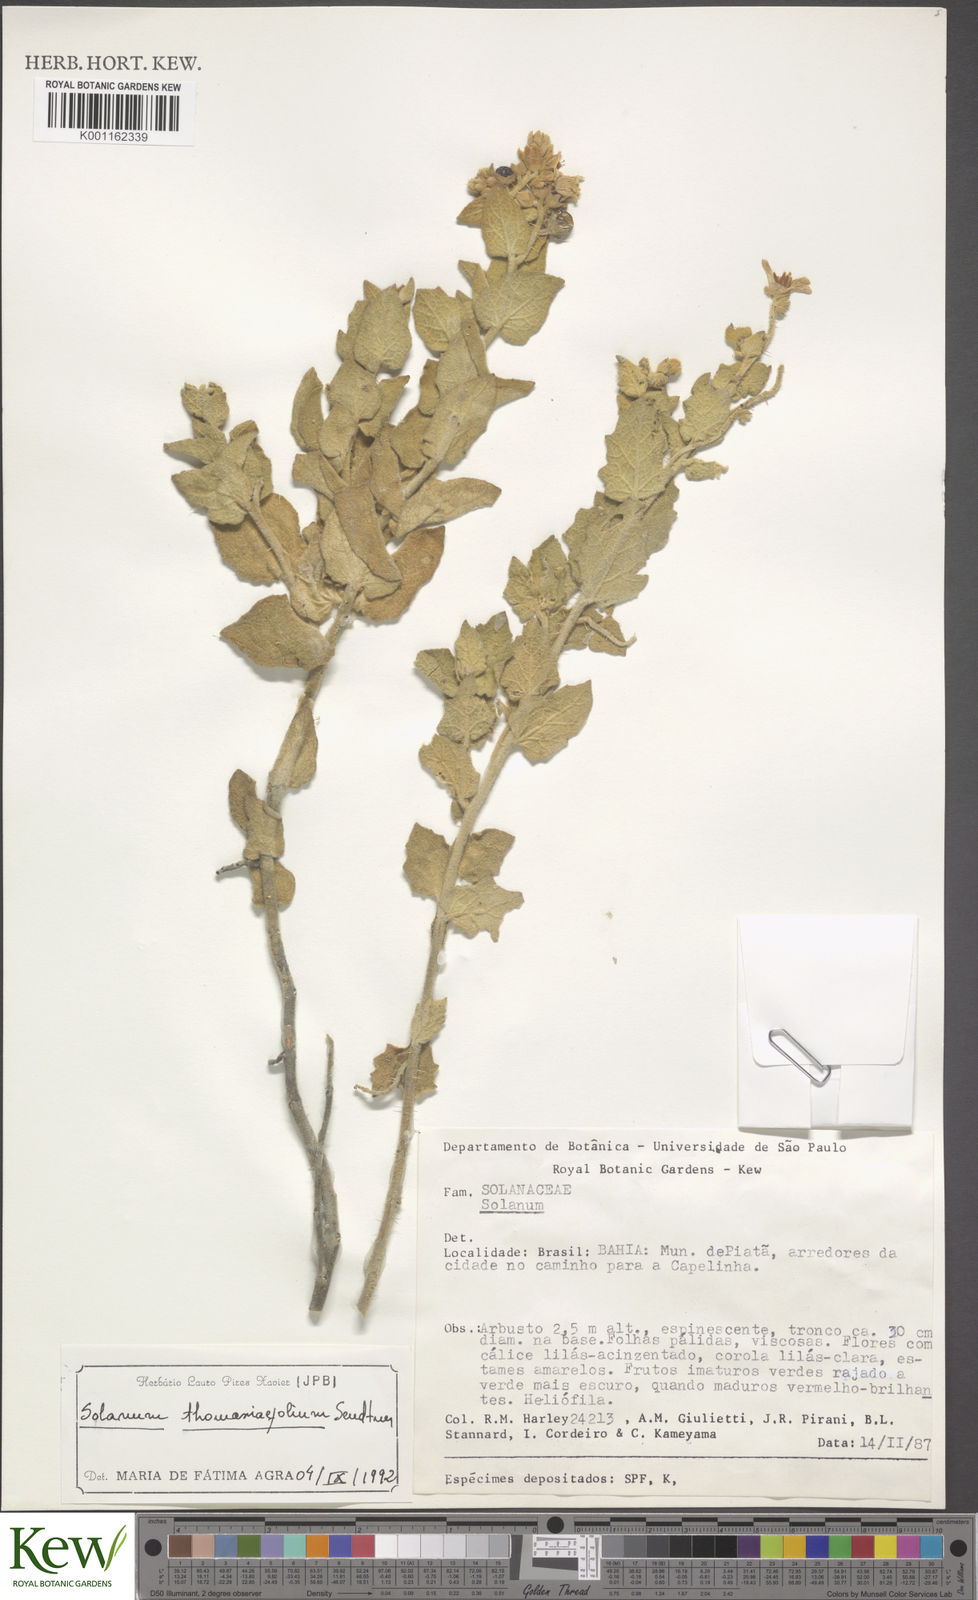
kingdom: Plantae
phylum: Tracheophyta
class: Magnoliopsida
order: Solanales
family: Solanaceae
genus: Solanum
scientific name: Solanum thomasiifolium
